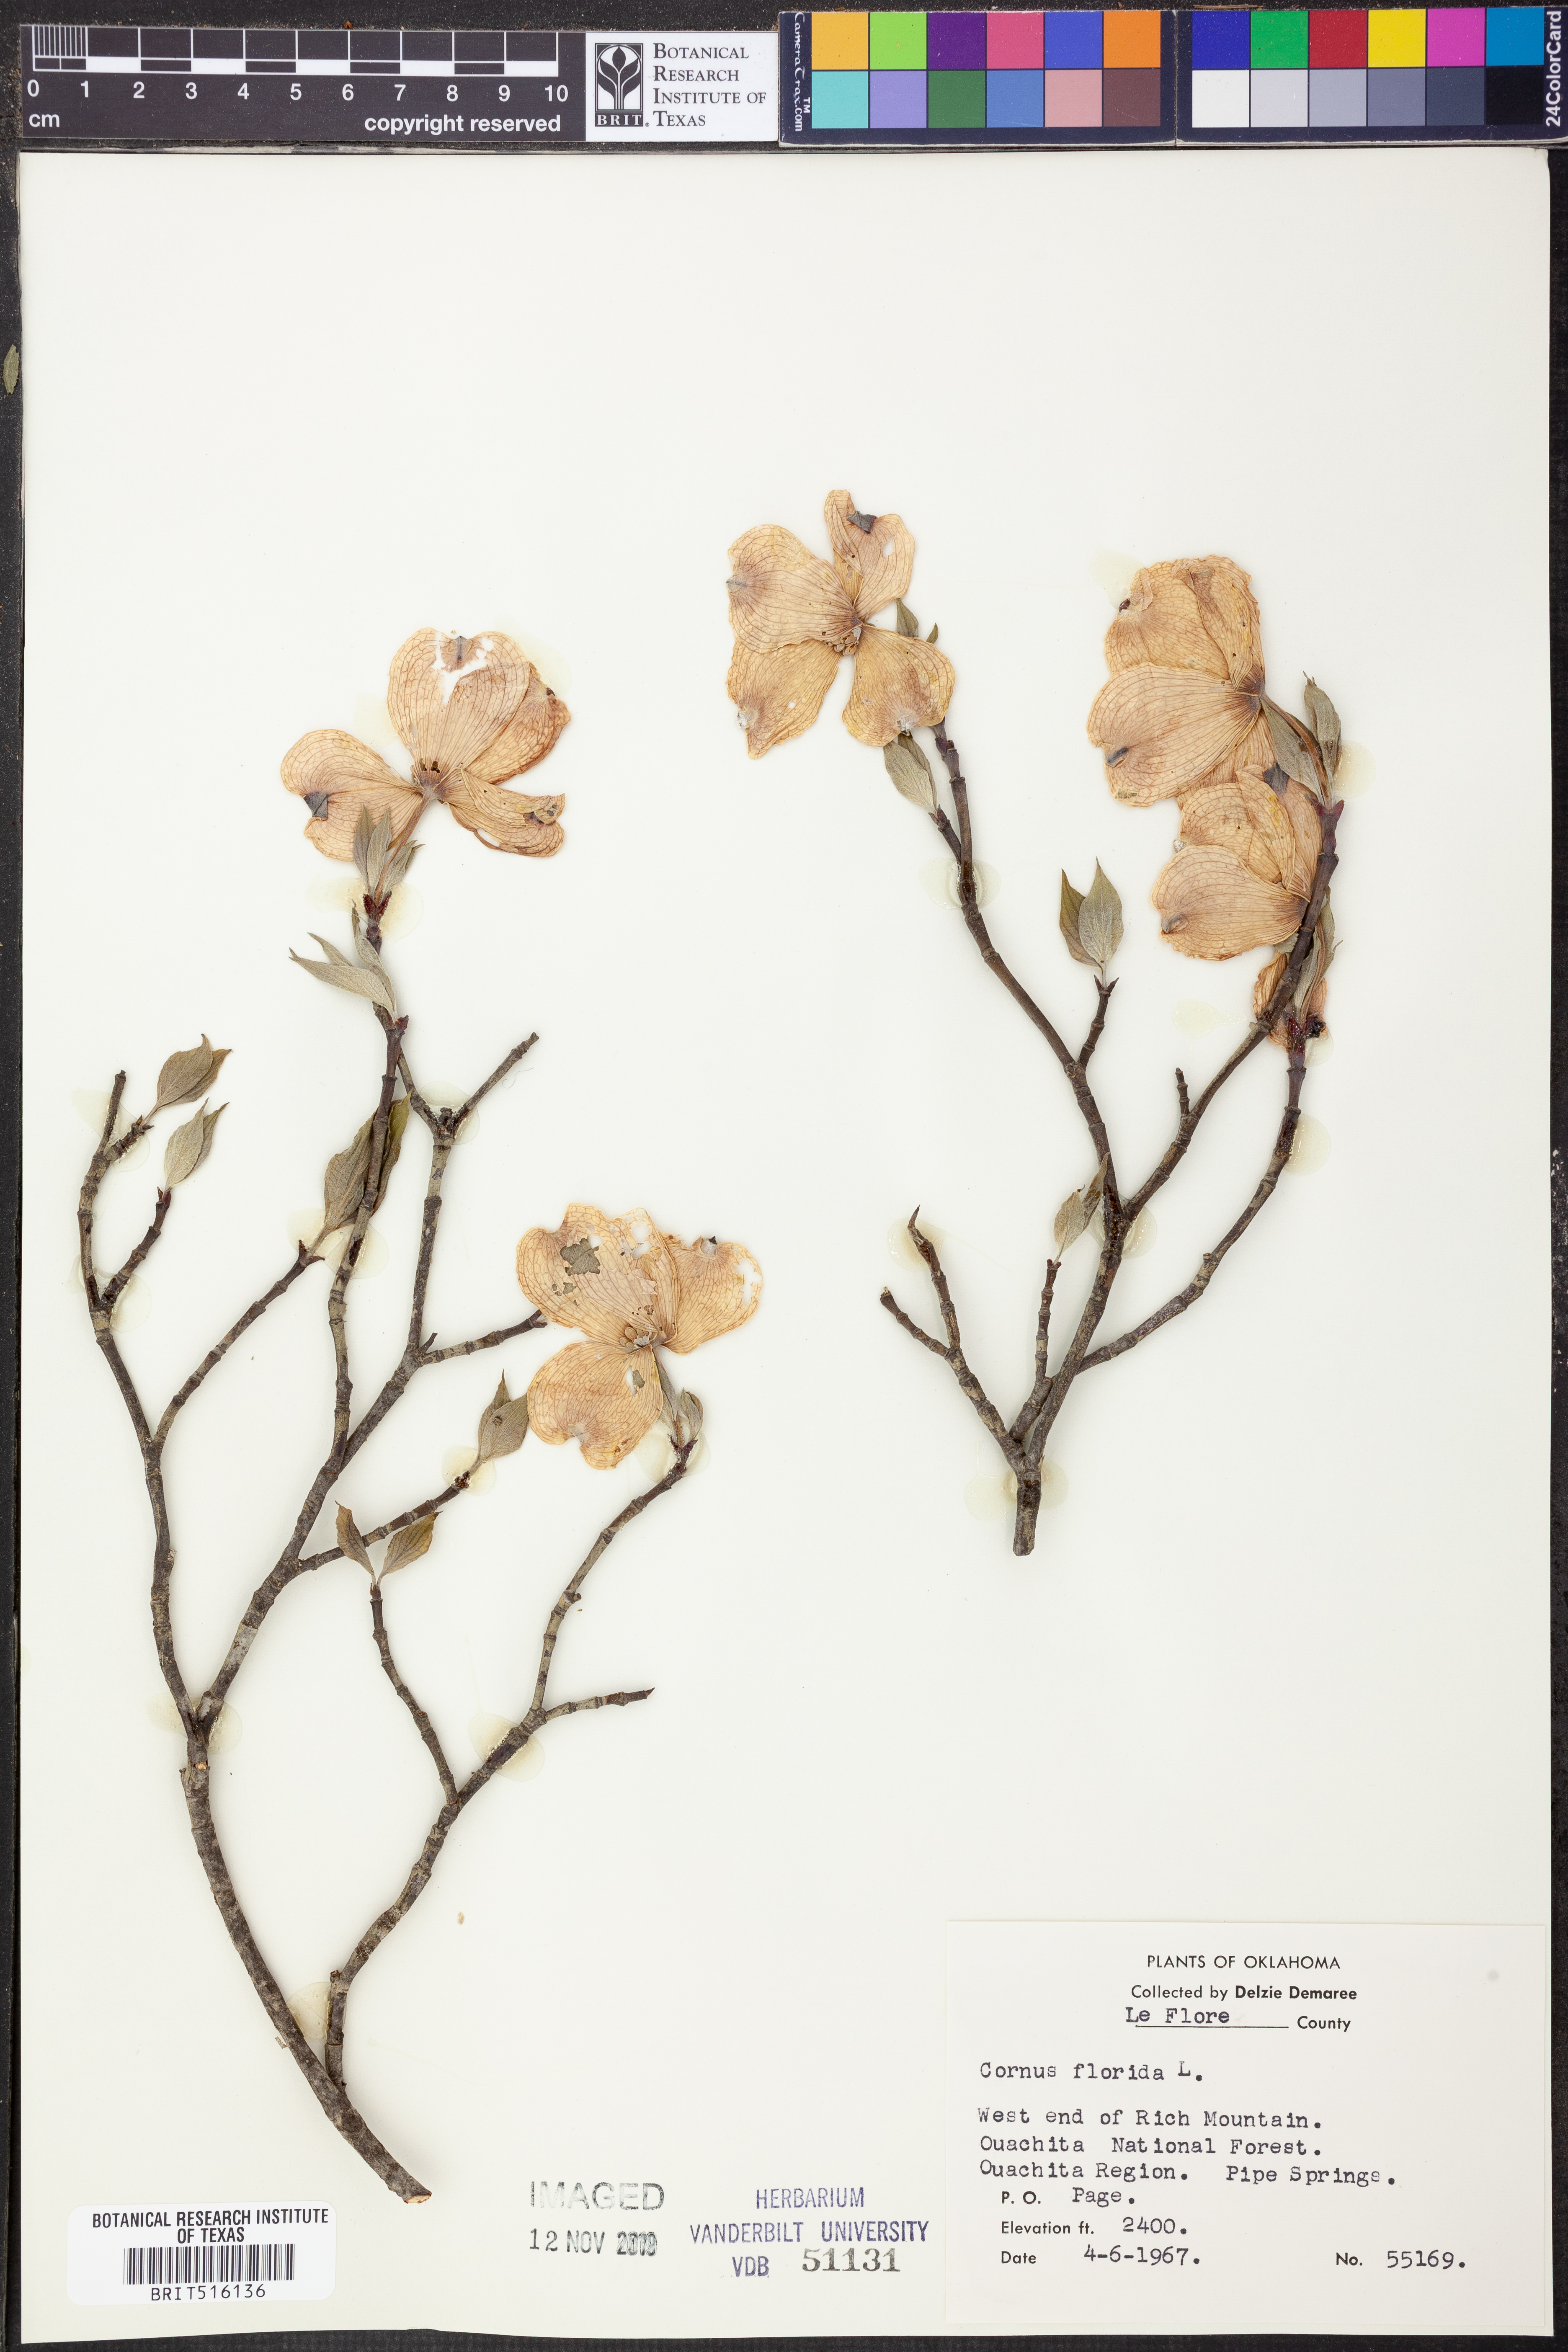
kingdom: Plantae
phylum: Tracheophyta
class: Magnoliopsida
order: Cornales
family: Cornaceae
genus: Cornus
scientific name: Cornus florida
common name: Flowering dogwood
